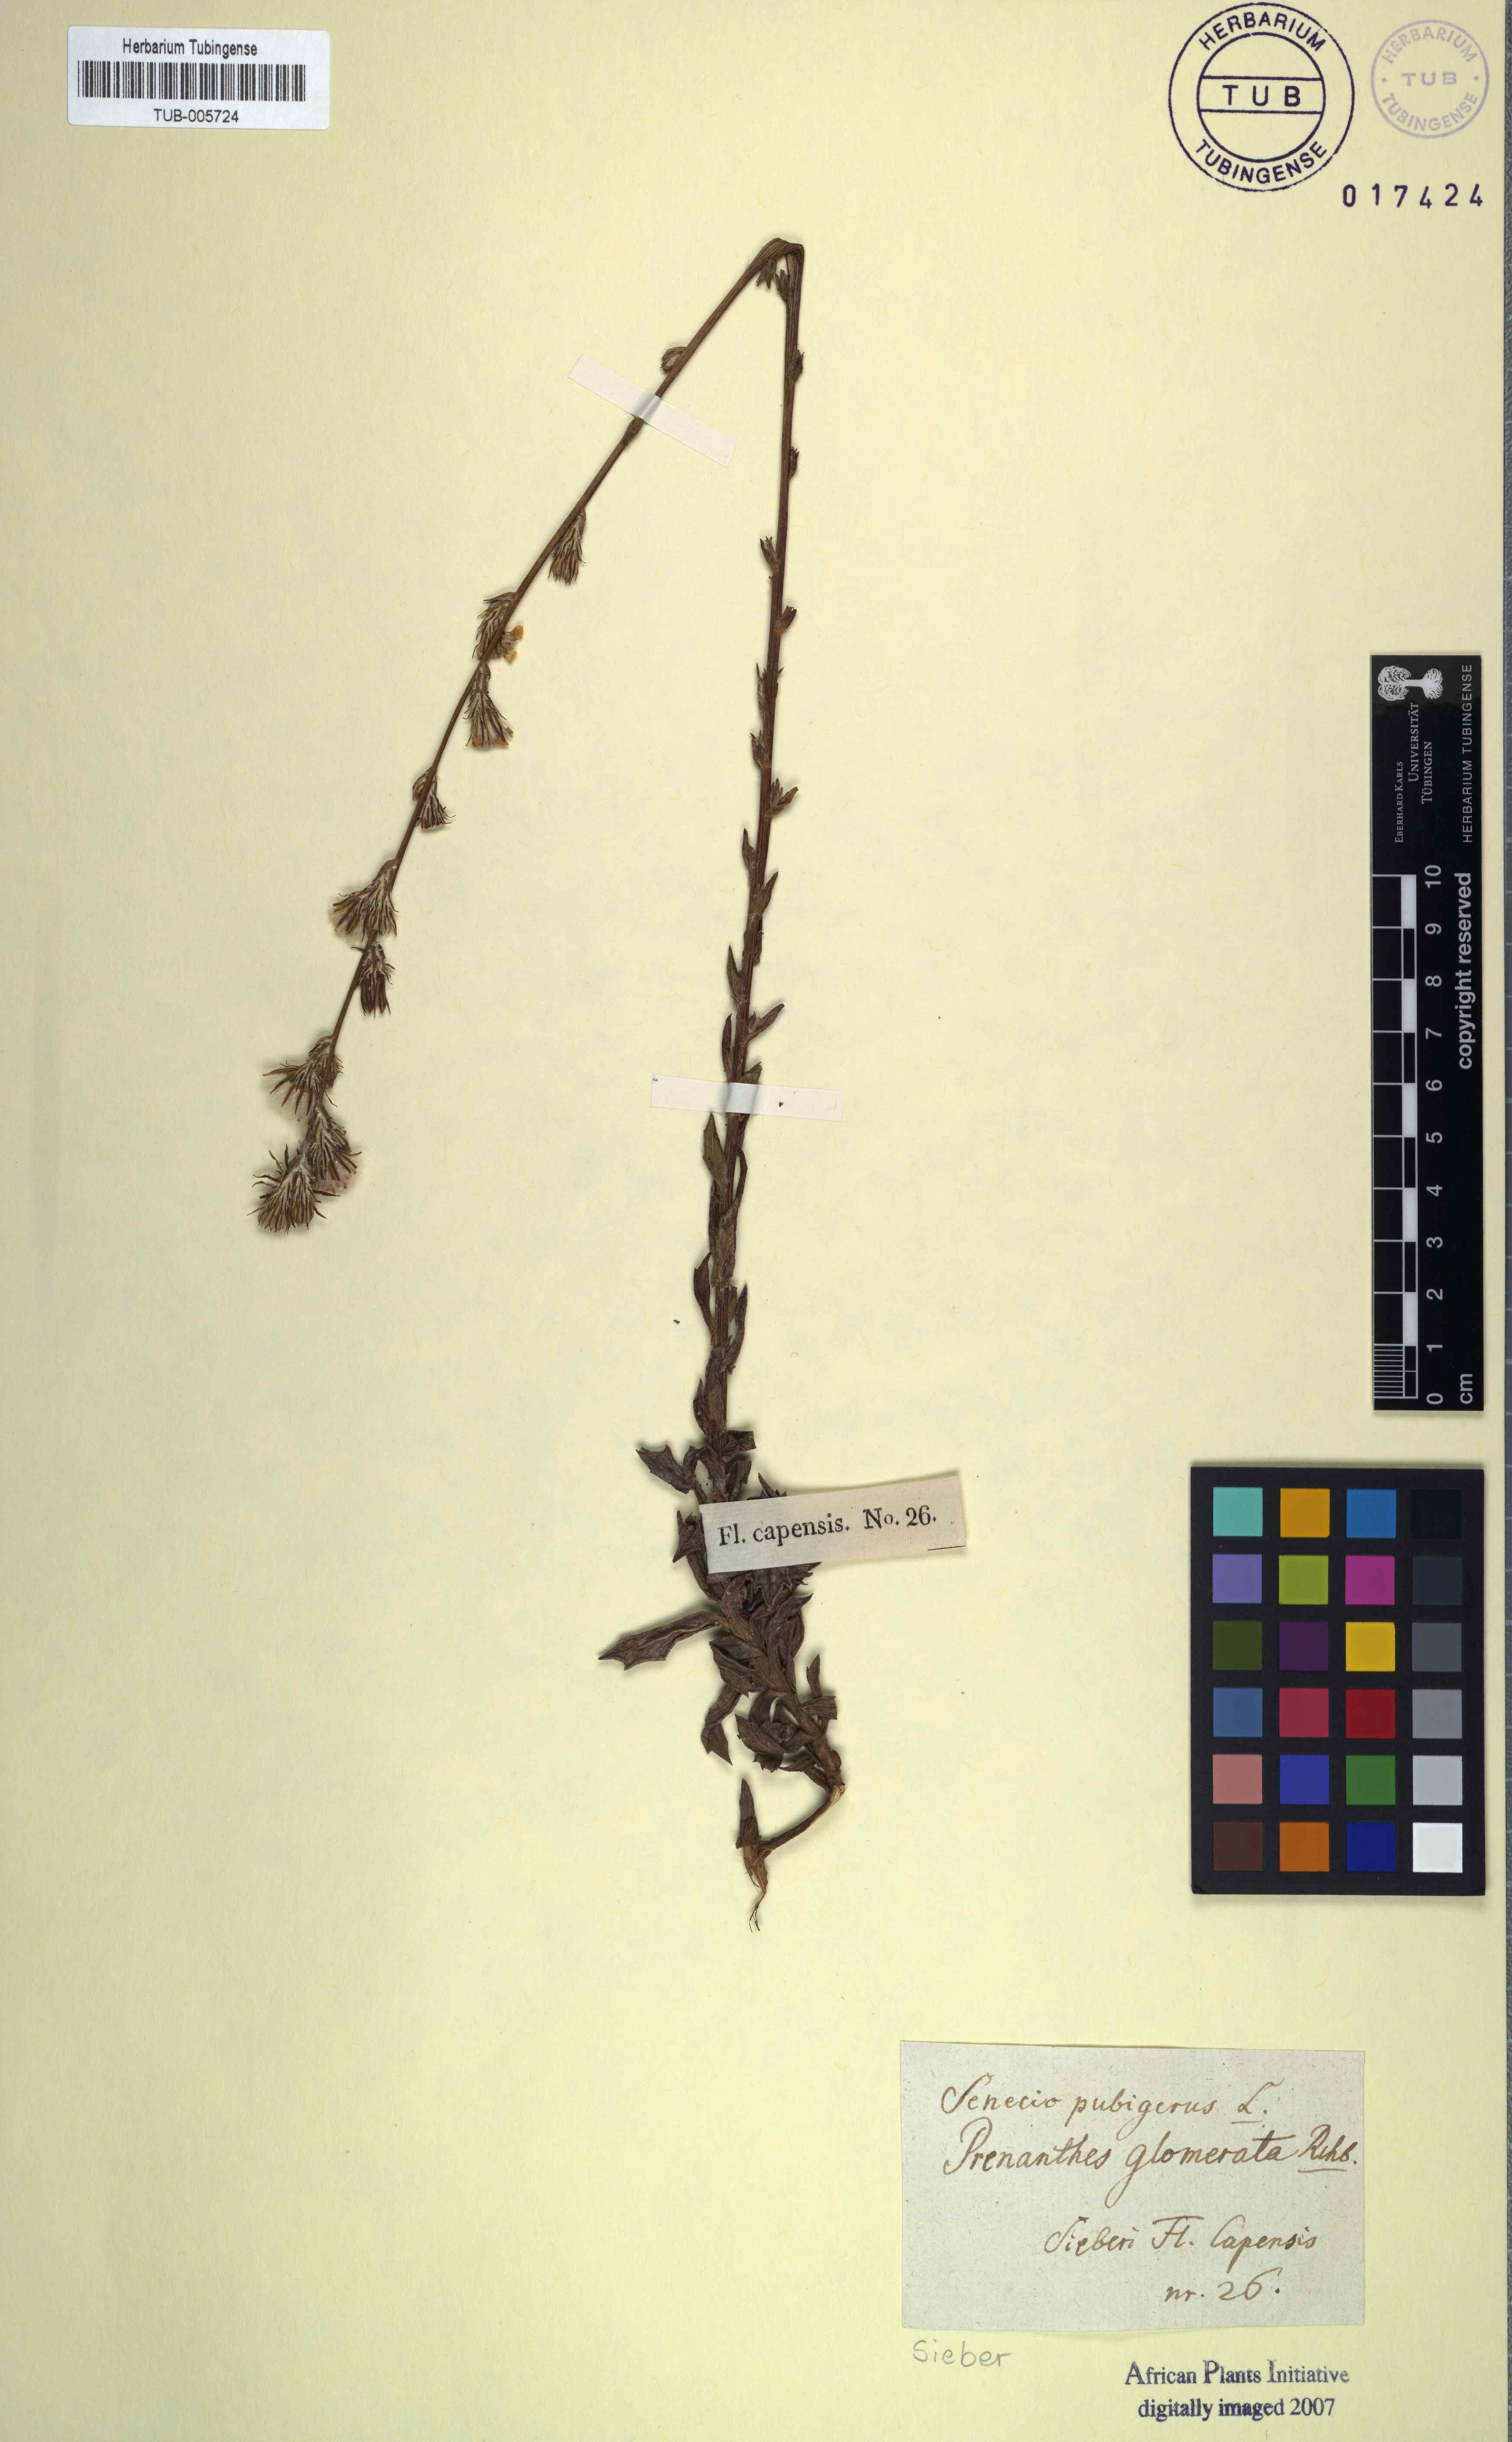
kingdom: Plantae
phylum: Tracheophyta
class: Magnoliopsida
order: Asterales
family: Asteraceae
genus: Senecio
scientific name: Senecio pubigerus
